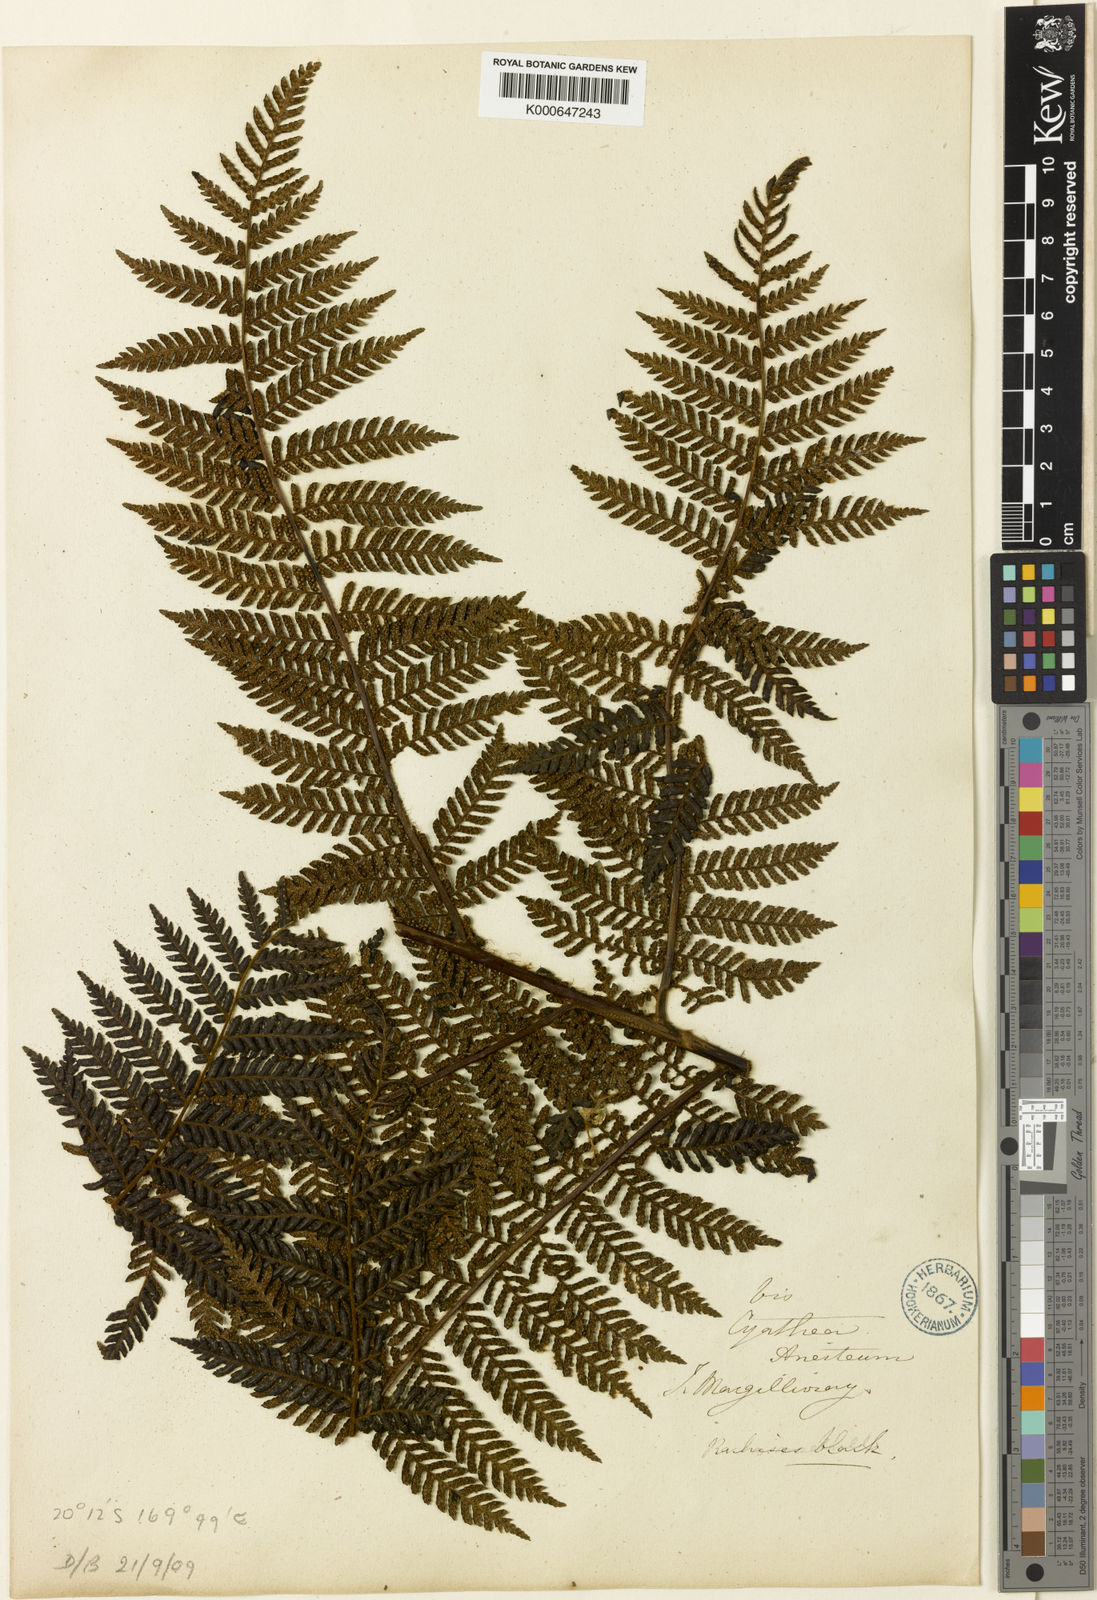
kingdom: Plantae
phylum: Tracheophyta
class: Polypodiopsida
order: Cyatheales
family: Cyatheaceae
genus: Alsophila
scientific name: Alsophila aneitensis
